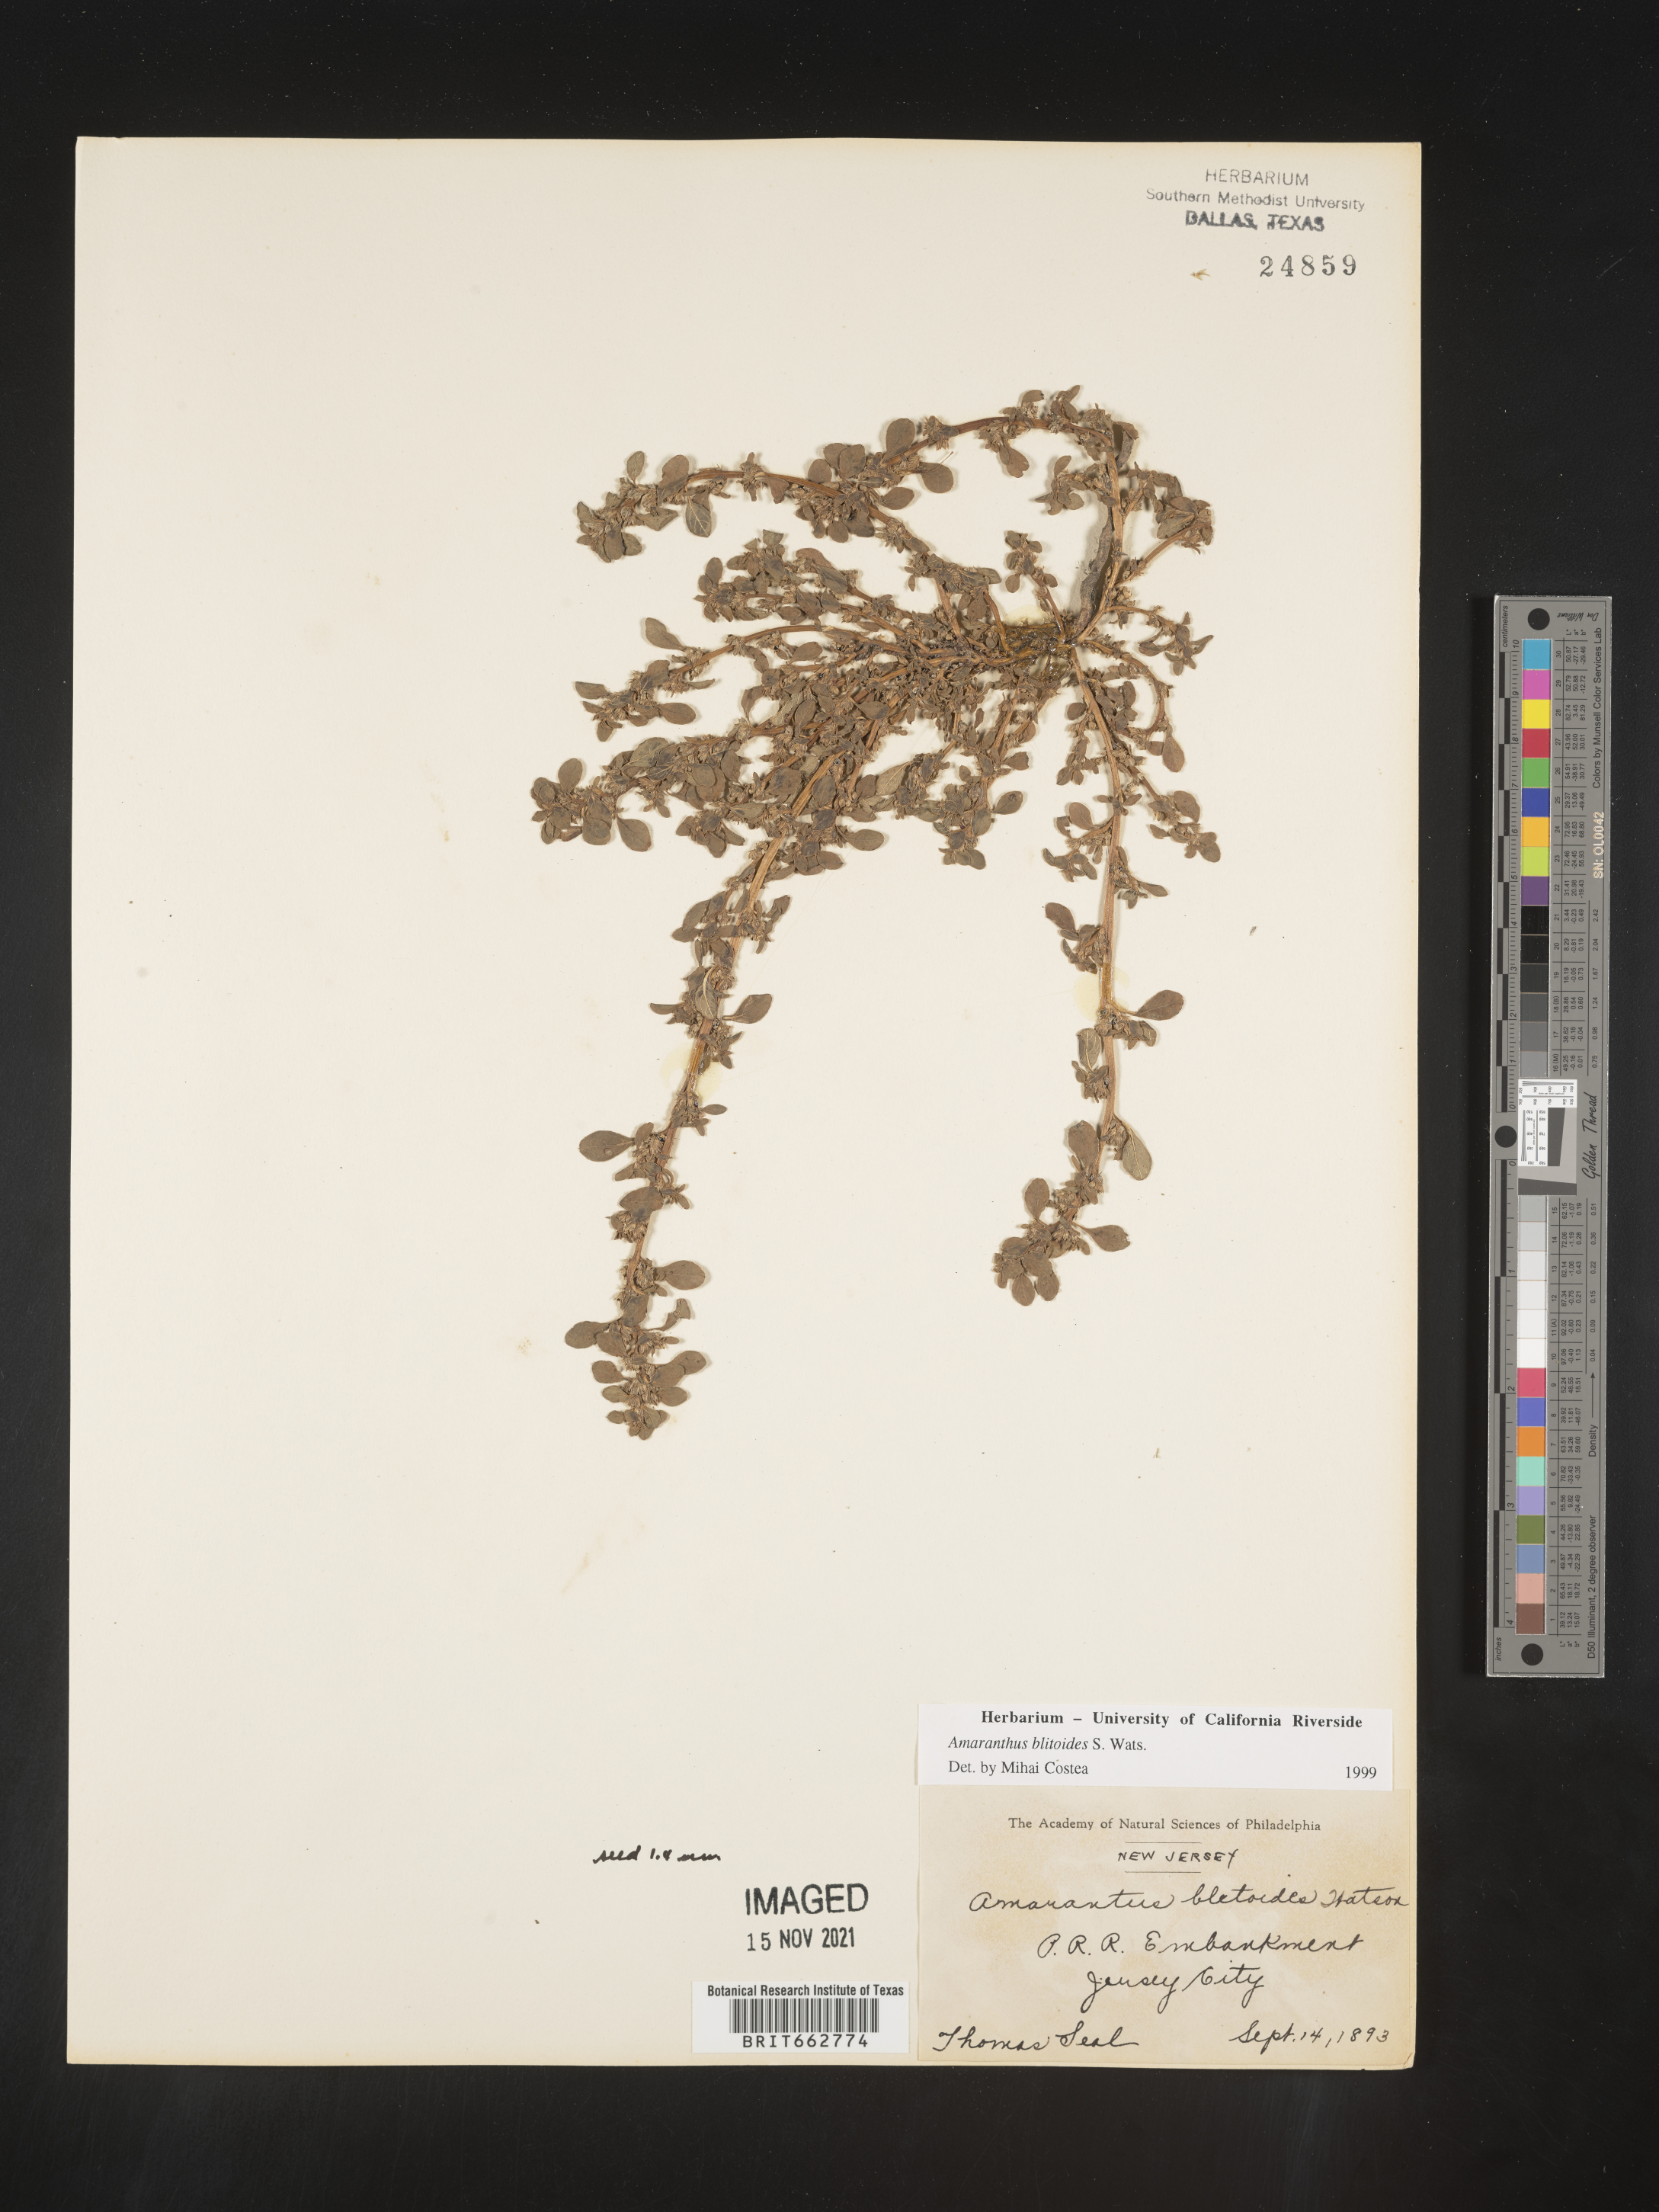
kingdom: Plantae
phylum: Tracheophyta
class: Magnoliopsida
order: Caryophyllales
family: Amaranthaceae
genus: Amaranthus
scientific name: Amaranthus blitoides
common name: Prostrate pigweed
